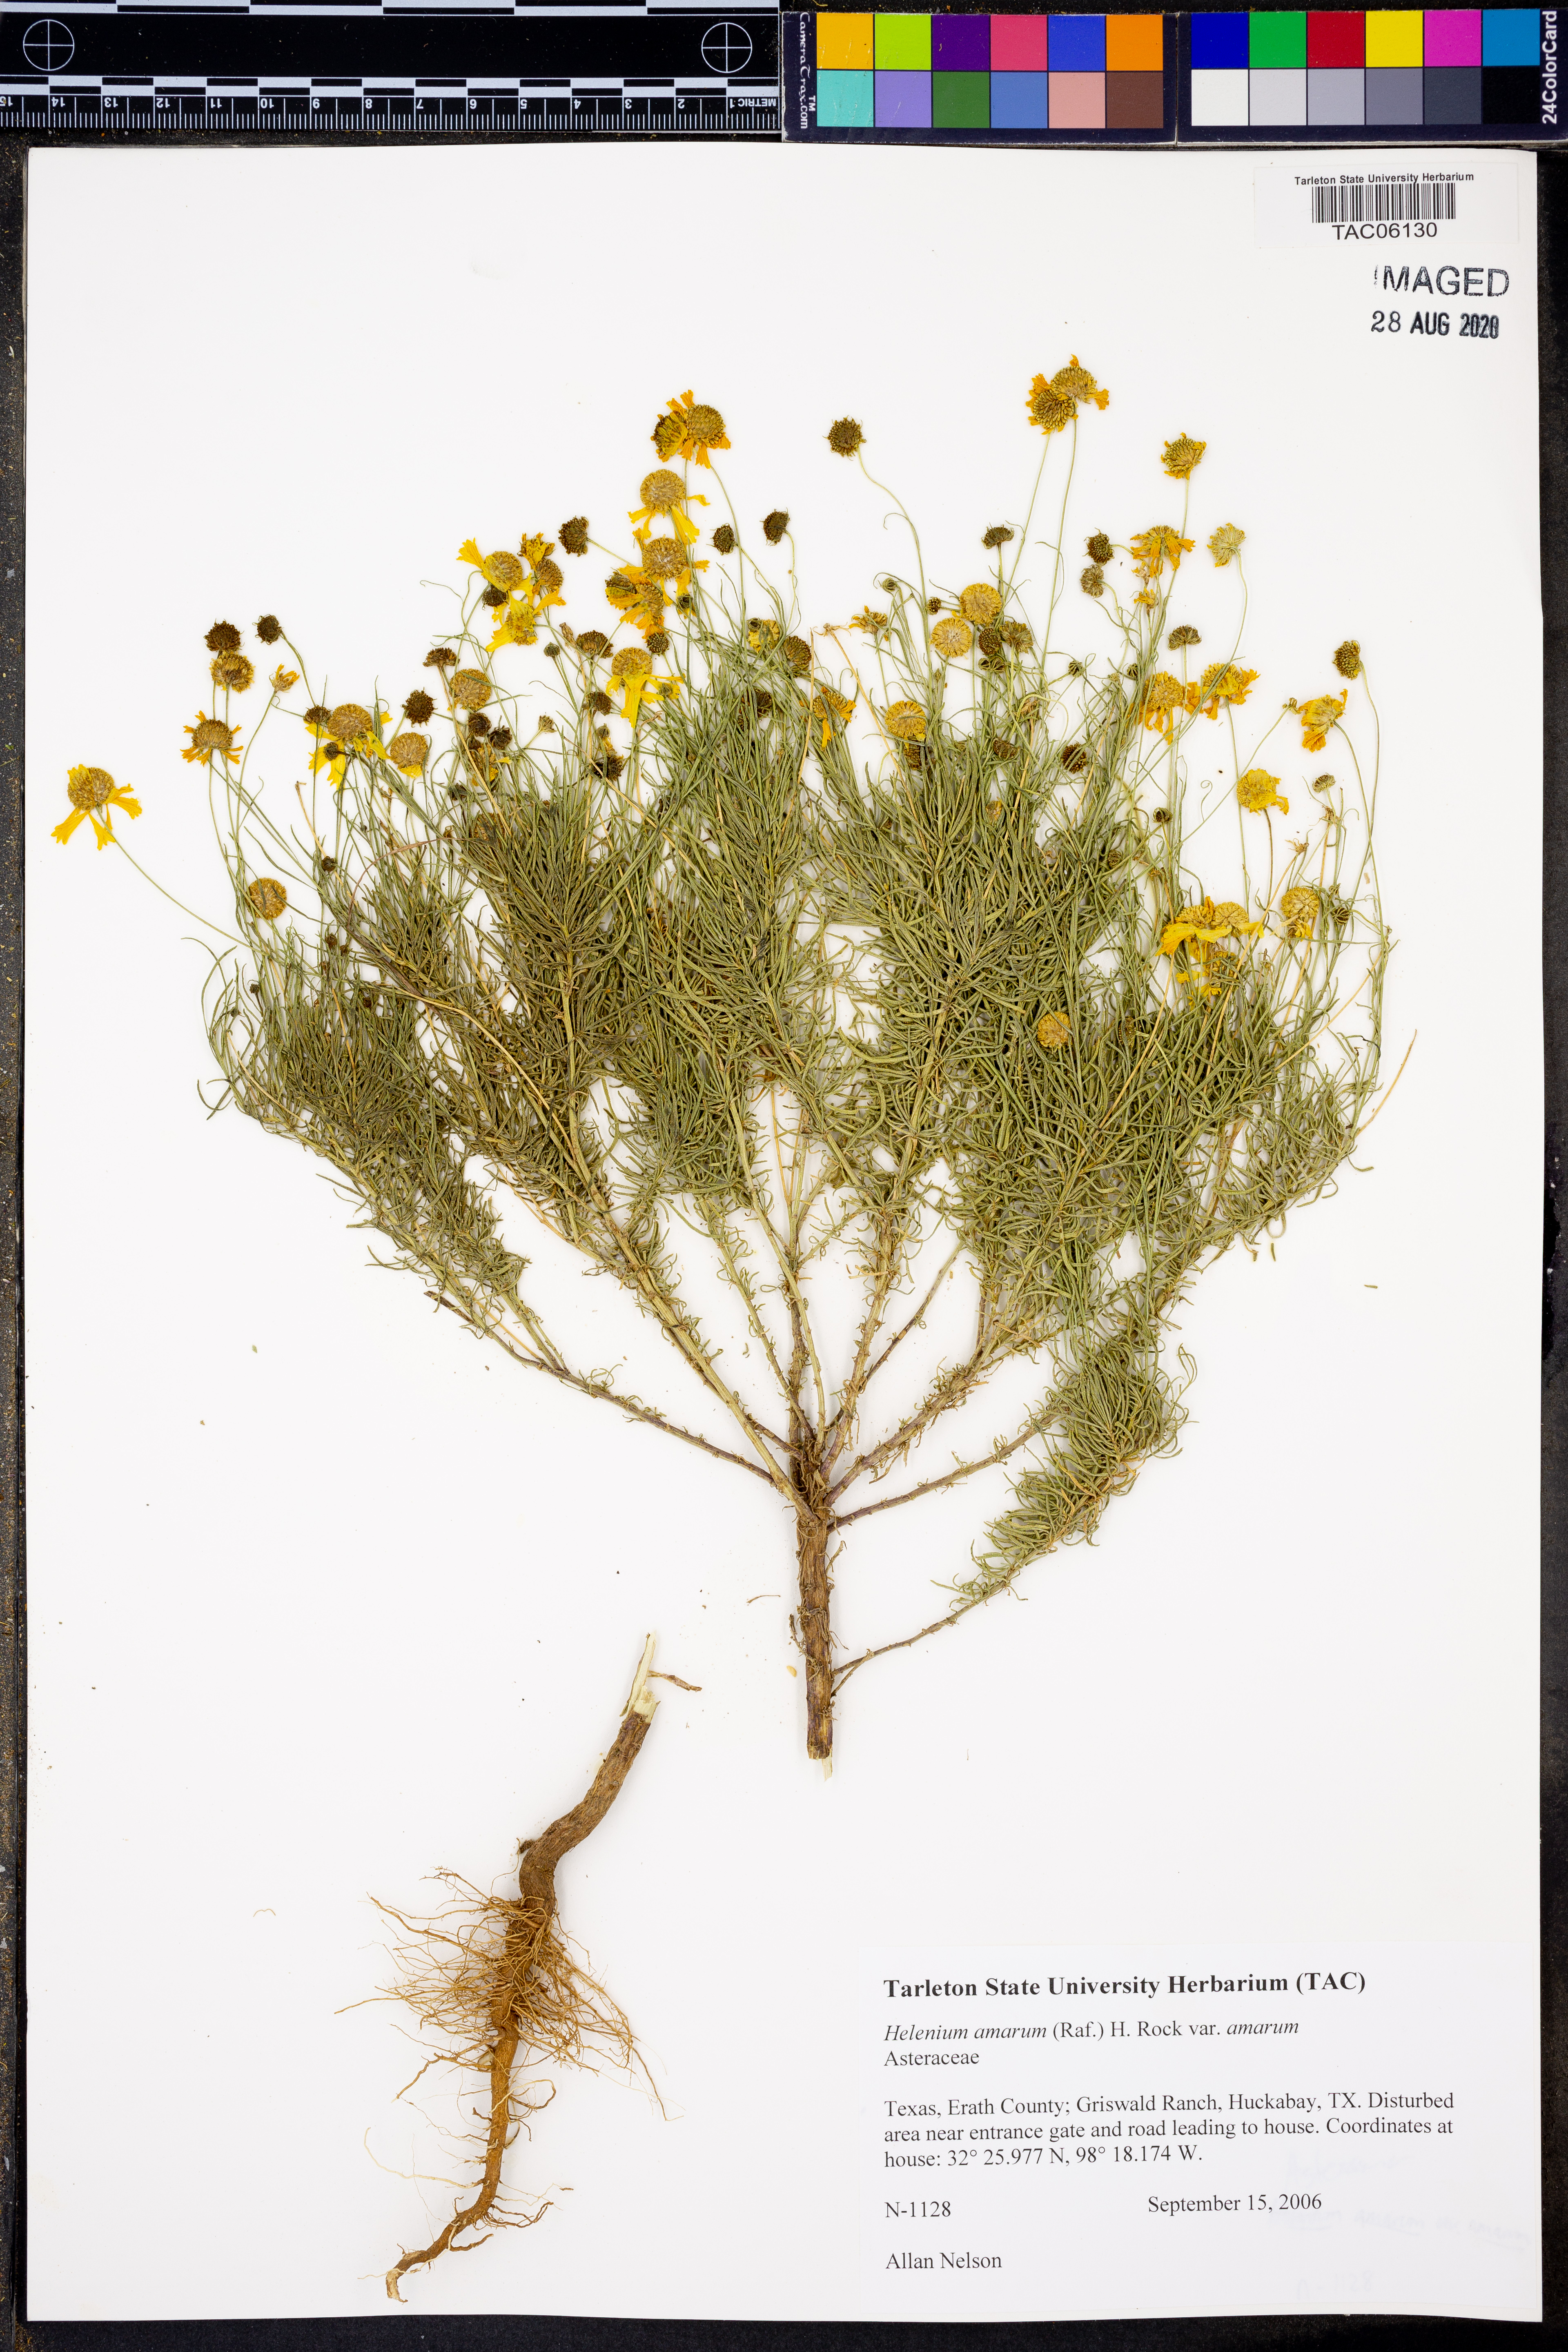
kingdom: Plantae
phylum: Tracheophyta
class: Magnoliopsida
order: Asterales
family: Asteraceae
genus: Helenium
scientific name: Helenium amarum
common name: Bitter sneezeweed
